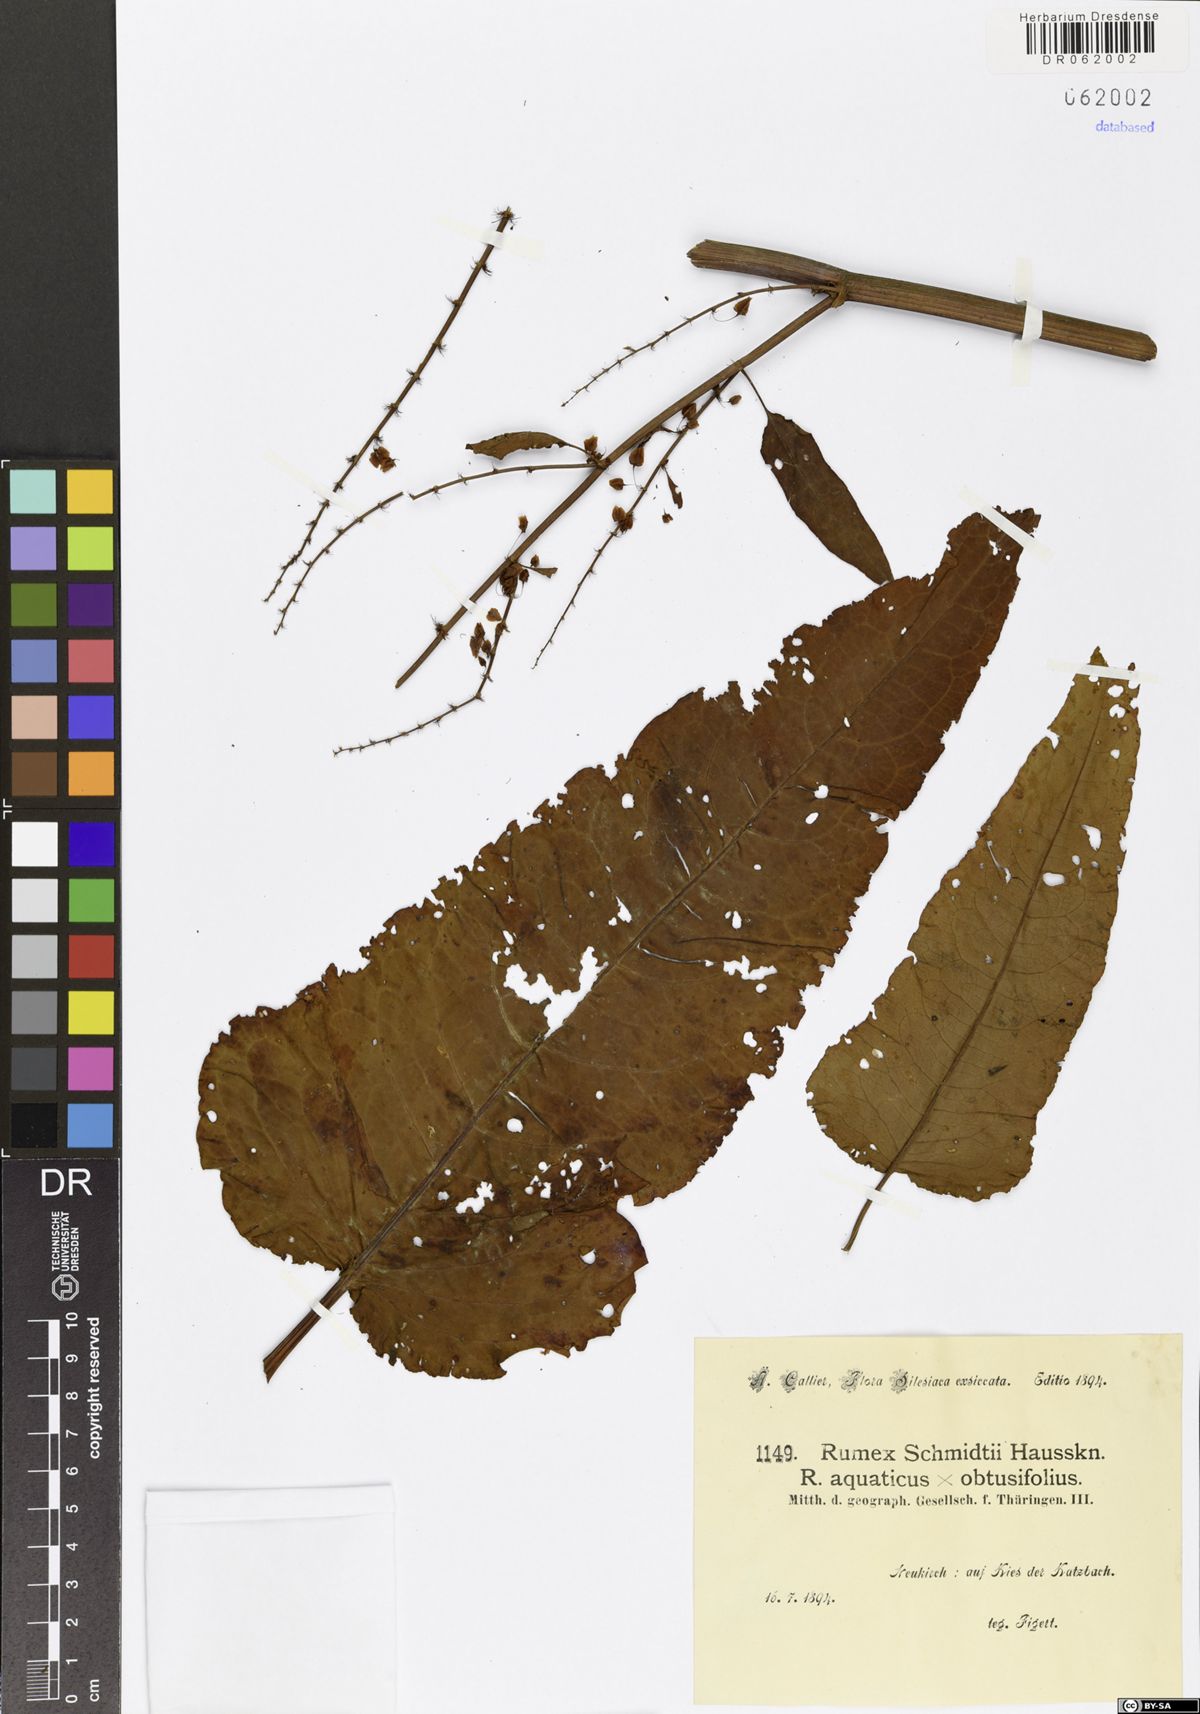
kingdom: Plantae
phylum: Tracheophyta
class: Magnoliopsida
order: Caryophyllales
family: Polygonaceae
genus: Rumex
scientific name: Rumex platyphyllus
